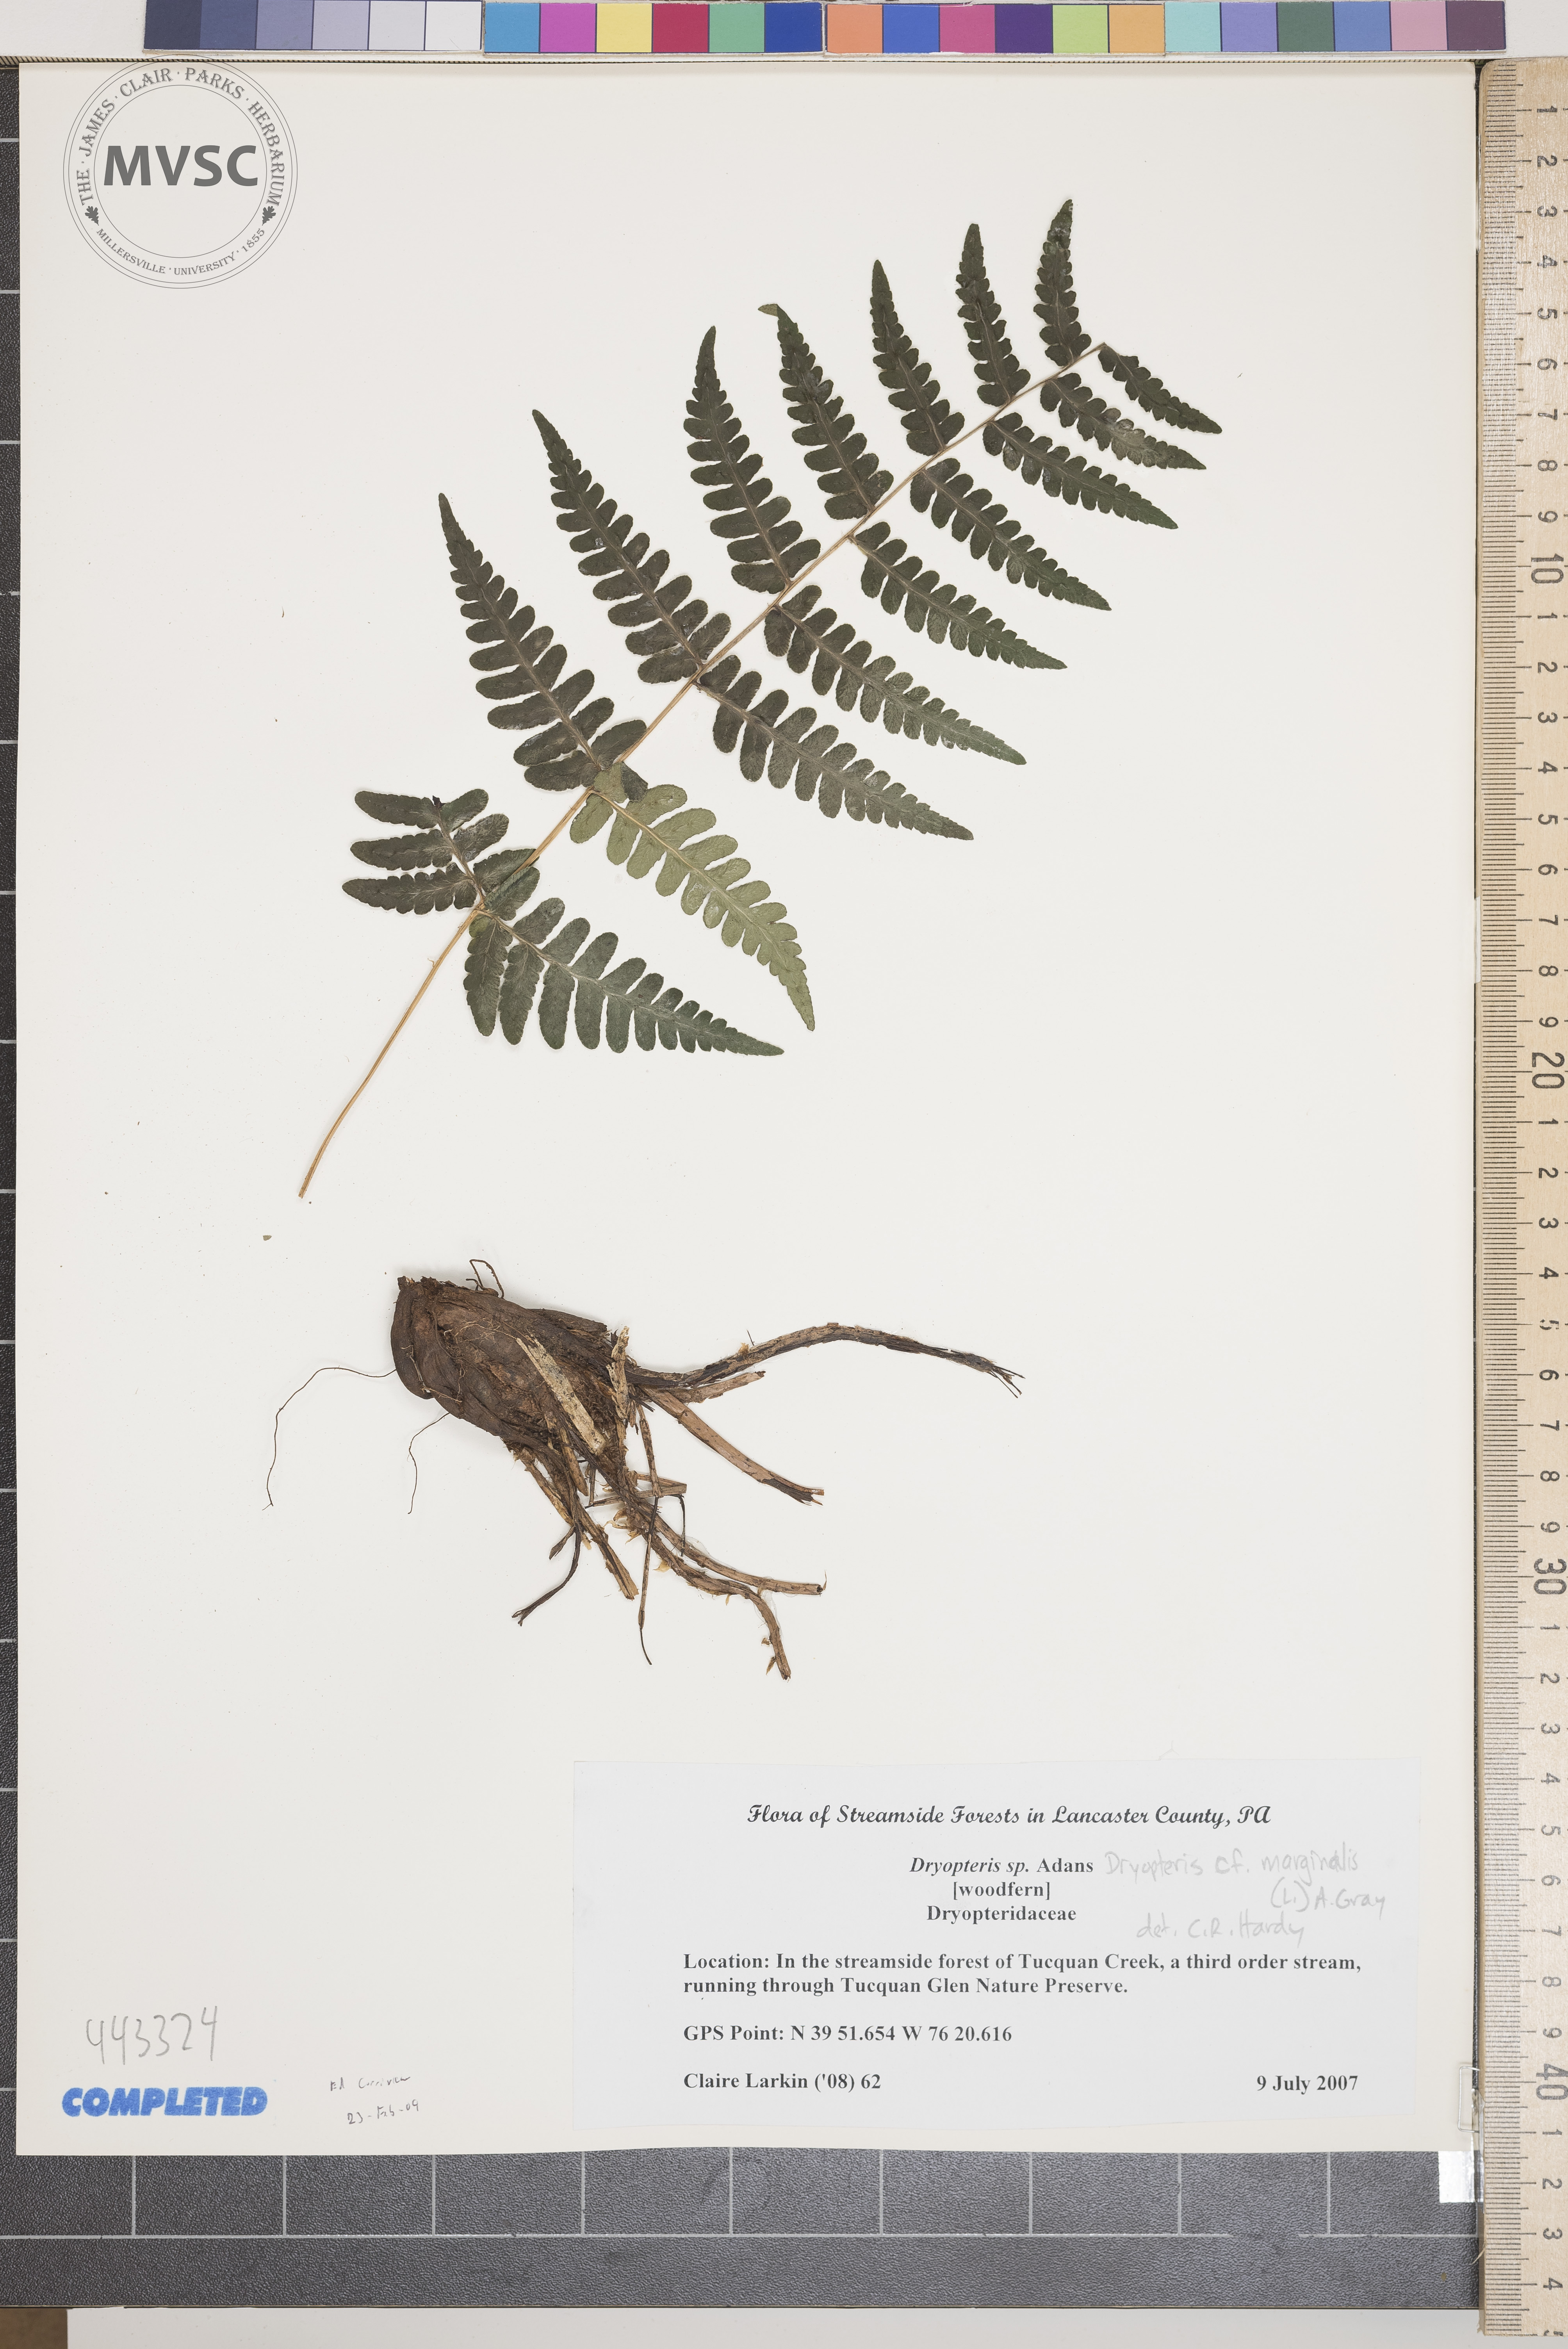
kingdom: Plantae
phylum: Tracheophyta
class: Polypodiopsida
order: Polypodiales
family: Dryopteridaceae
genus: Dryopteris
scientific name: Dryopteris marginalis
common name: Woodfern
